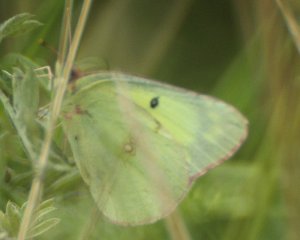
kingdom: Animalia
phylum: Arthropoda
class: Insecta
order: Lepidoptera
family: Pieridae
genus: Colias
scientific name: Colias philodice
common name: Clouded Sulphur
